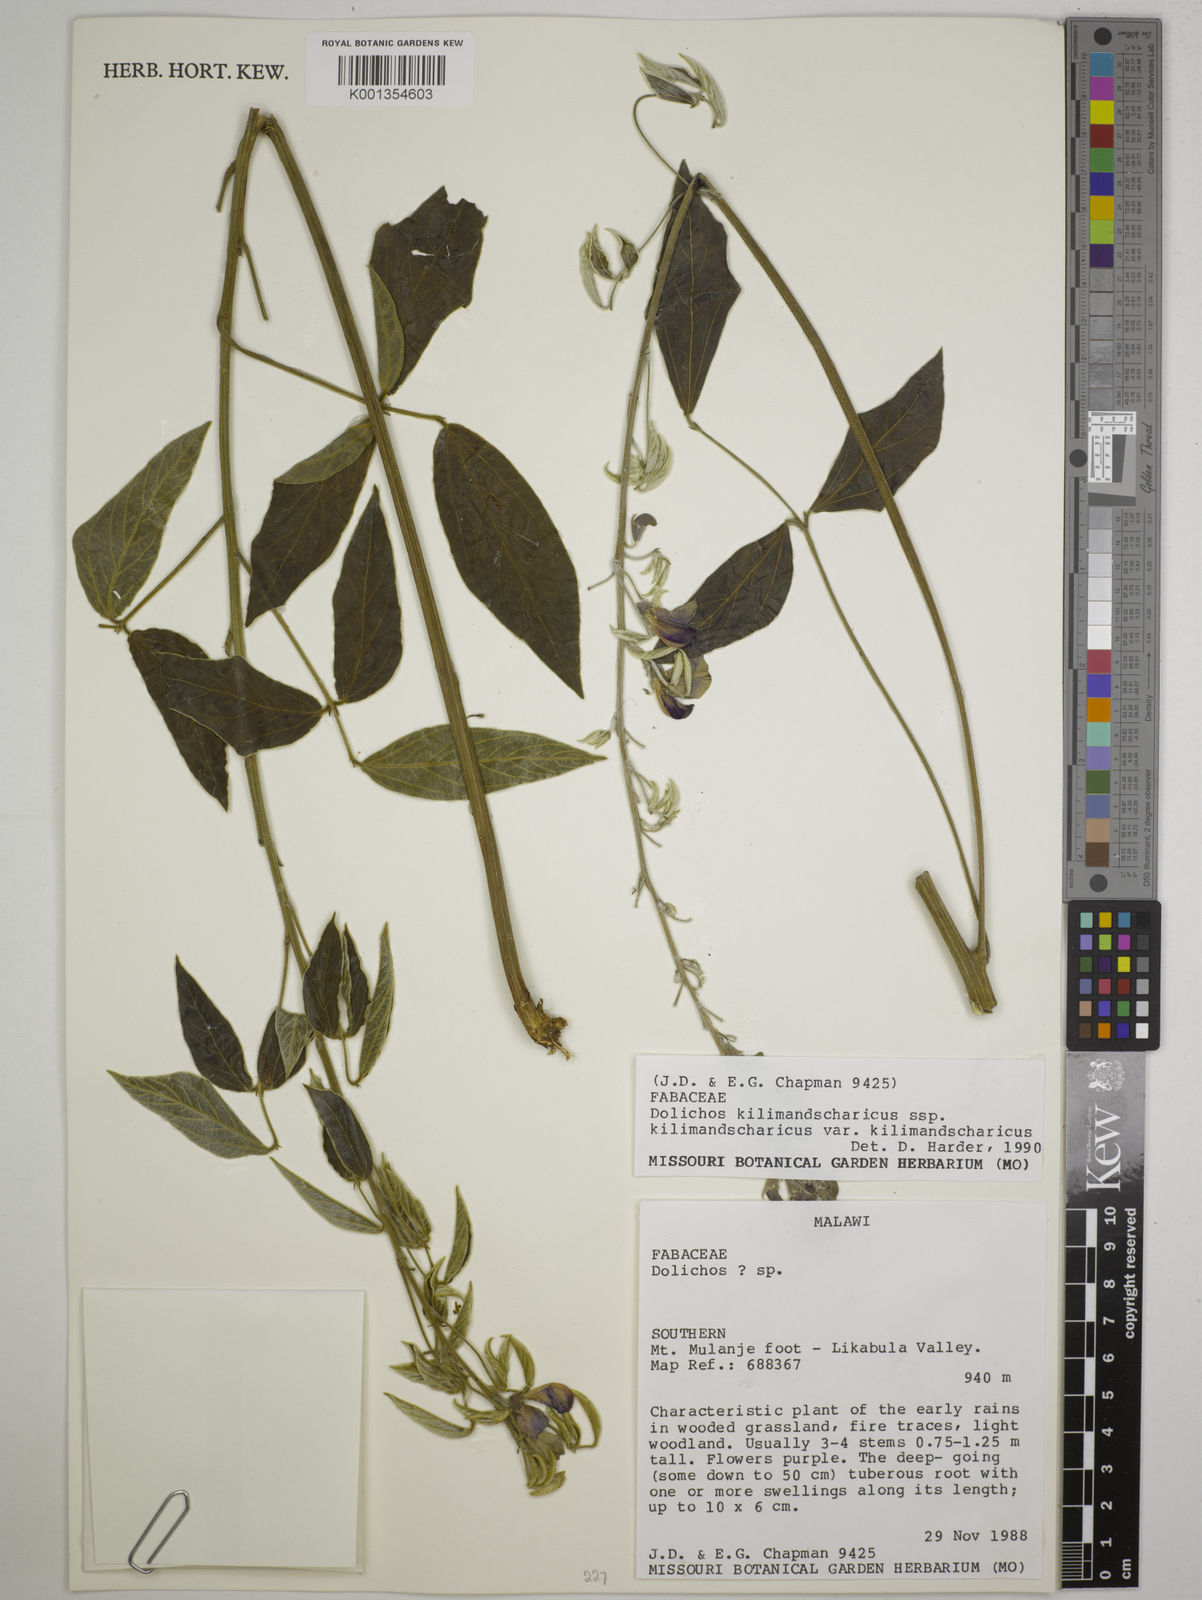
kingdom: Plantae
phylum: Tracheophyta
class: Magnoliopsida
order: Fabales
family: Fabaceae
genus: Dolichos
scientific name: Dolichos
